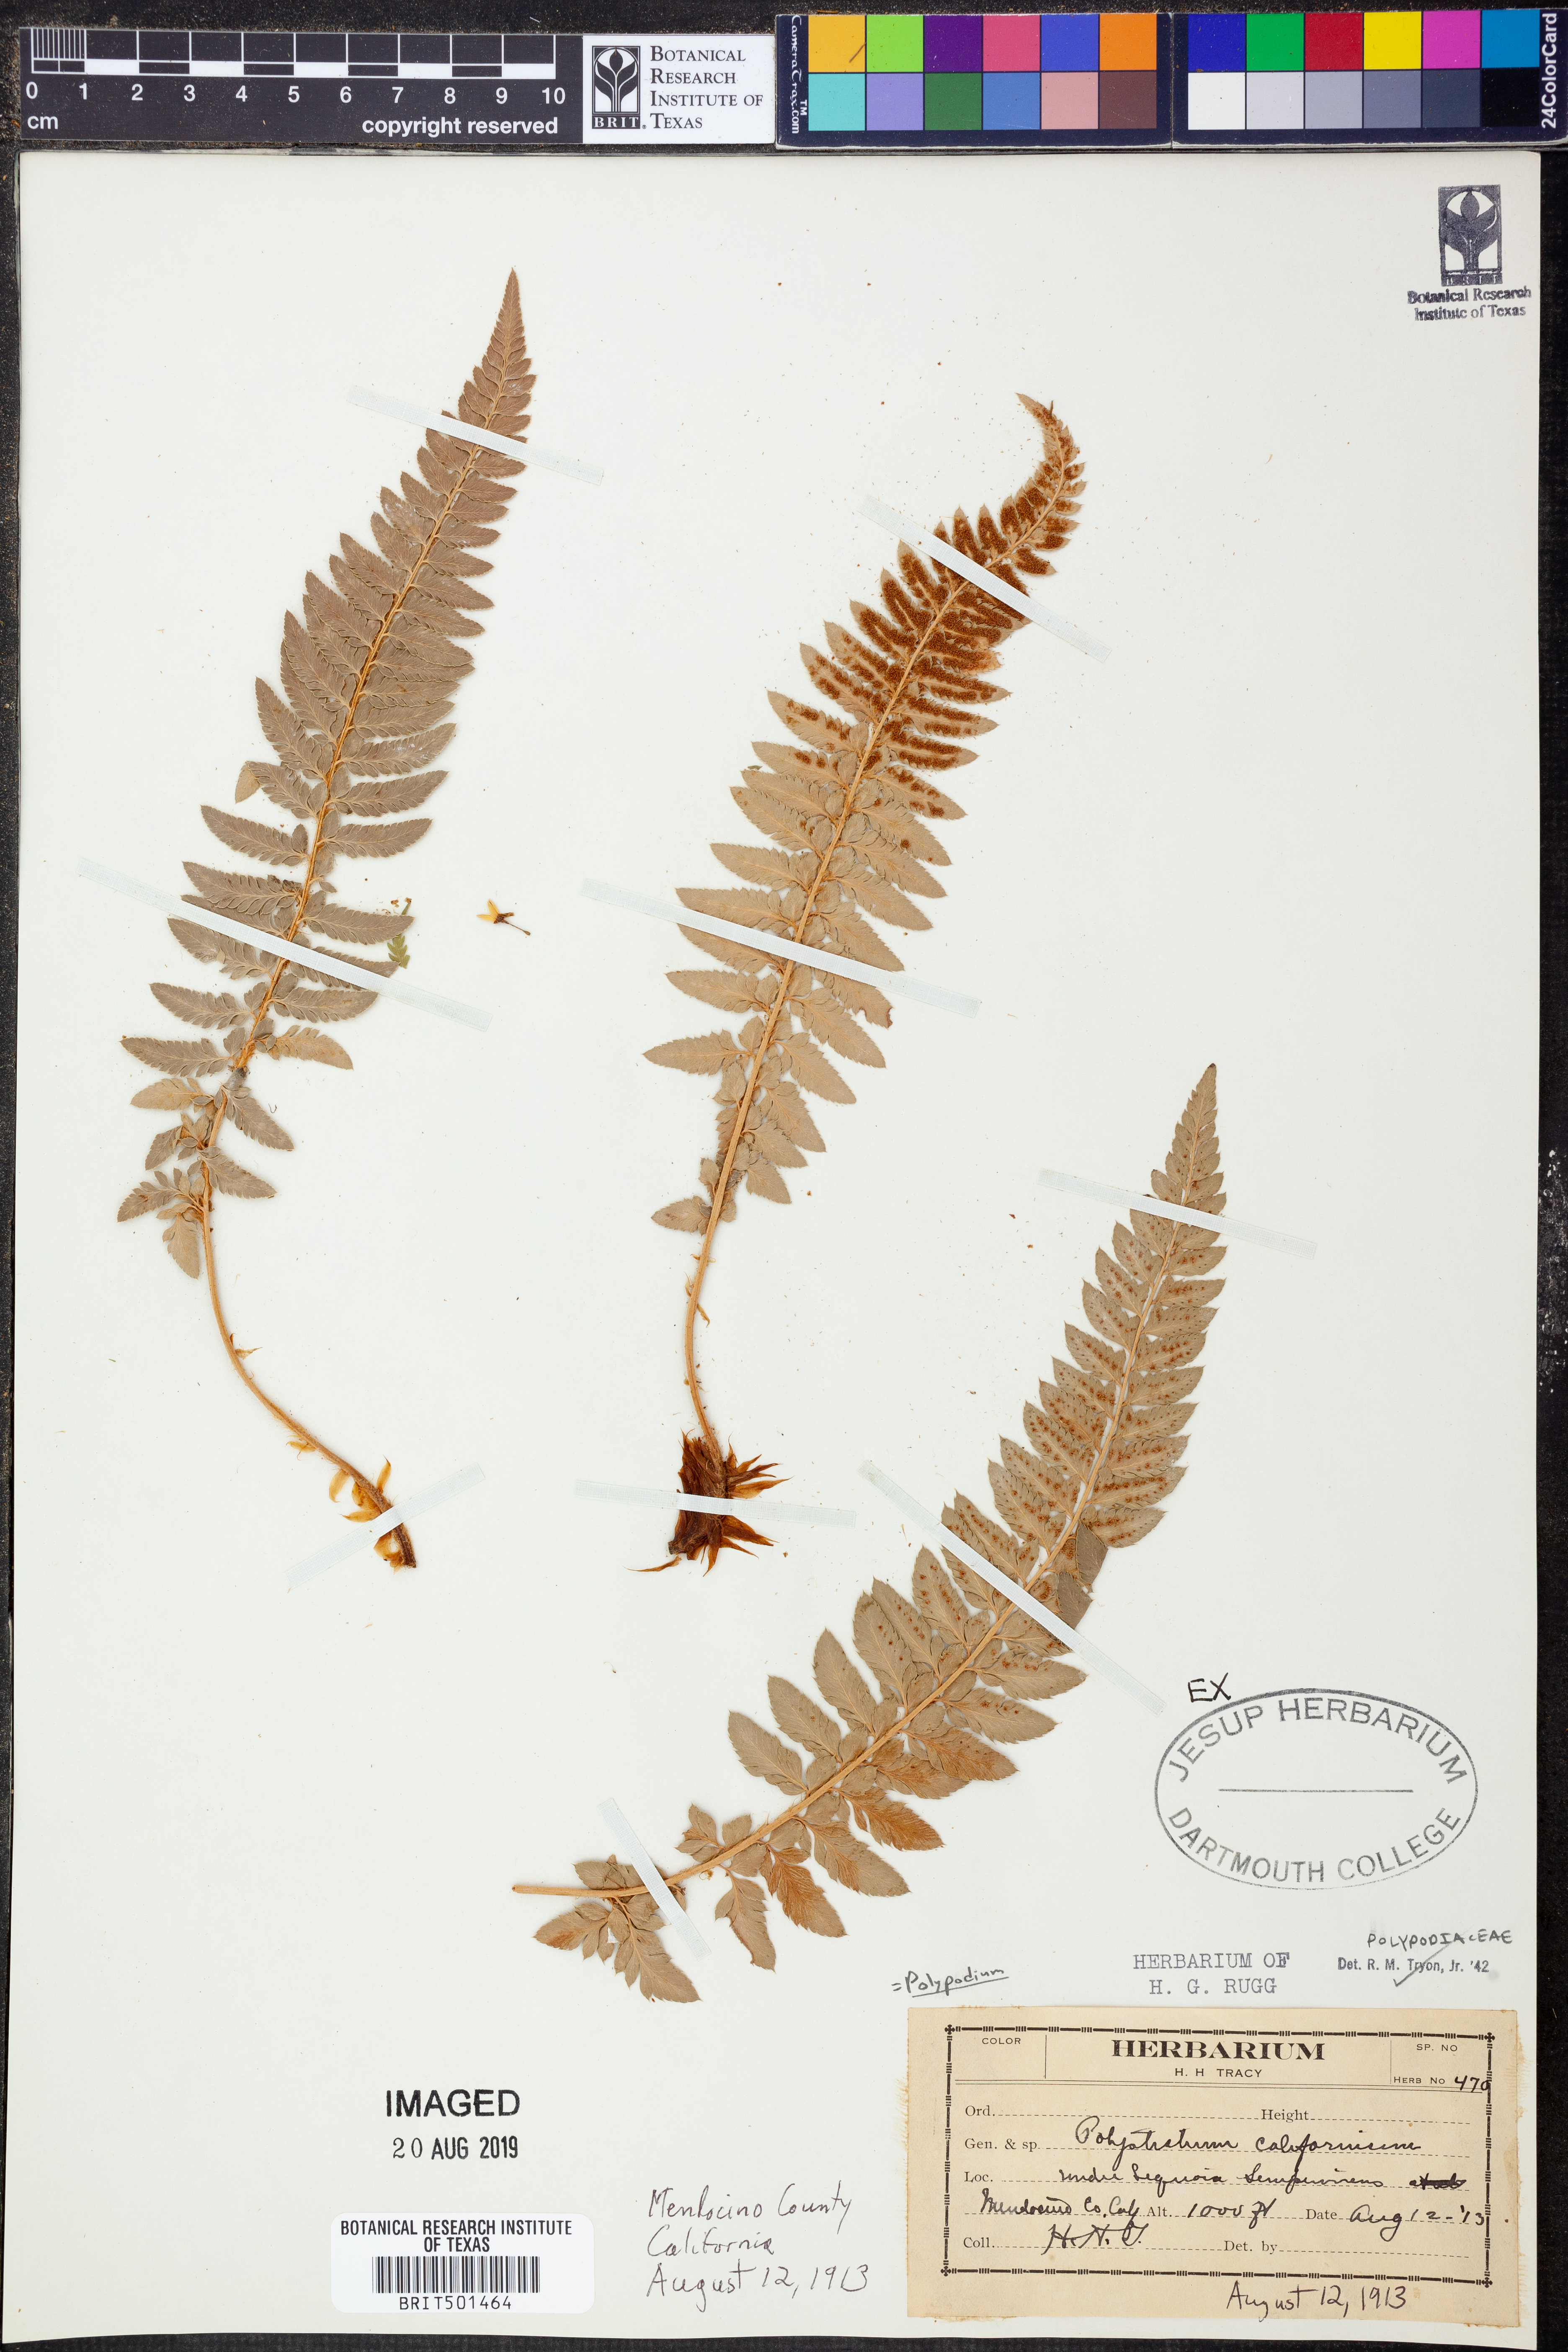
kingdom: Plantae
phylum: Tracheophyta
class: Polypodiopsida
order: Polypodiales
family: Dryopteridaceae
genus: Polystichum
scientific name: Polystichum californicum
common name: California sword fern
